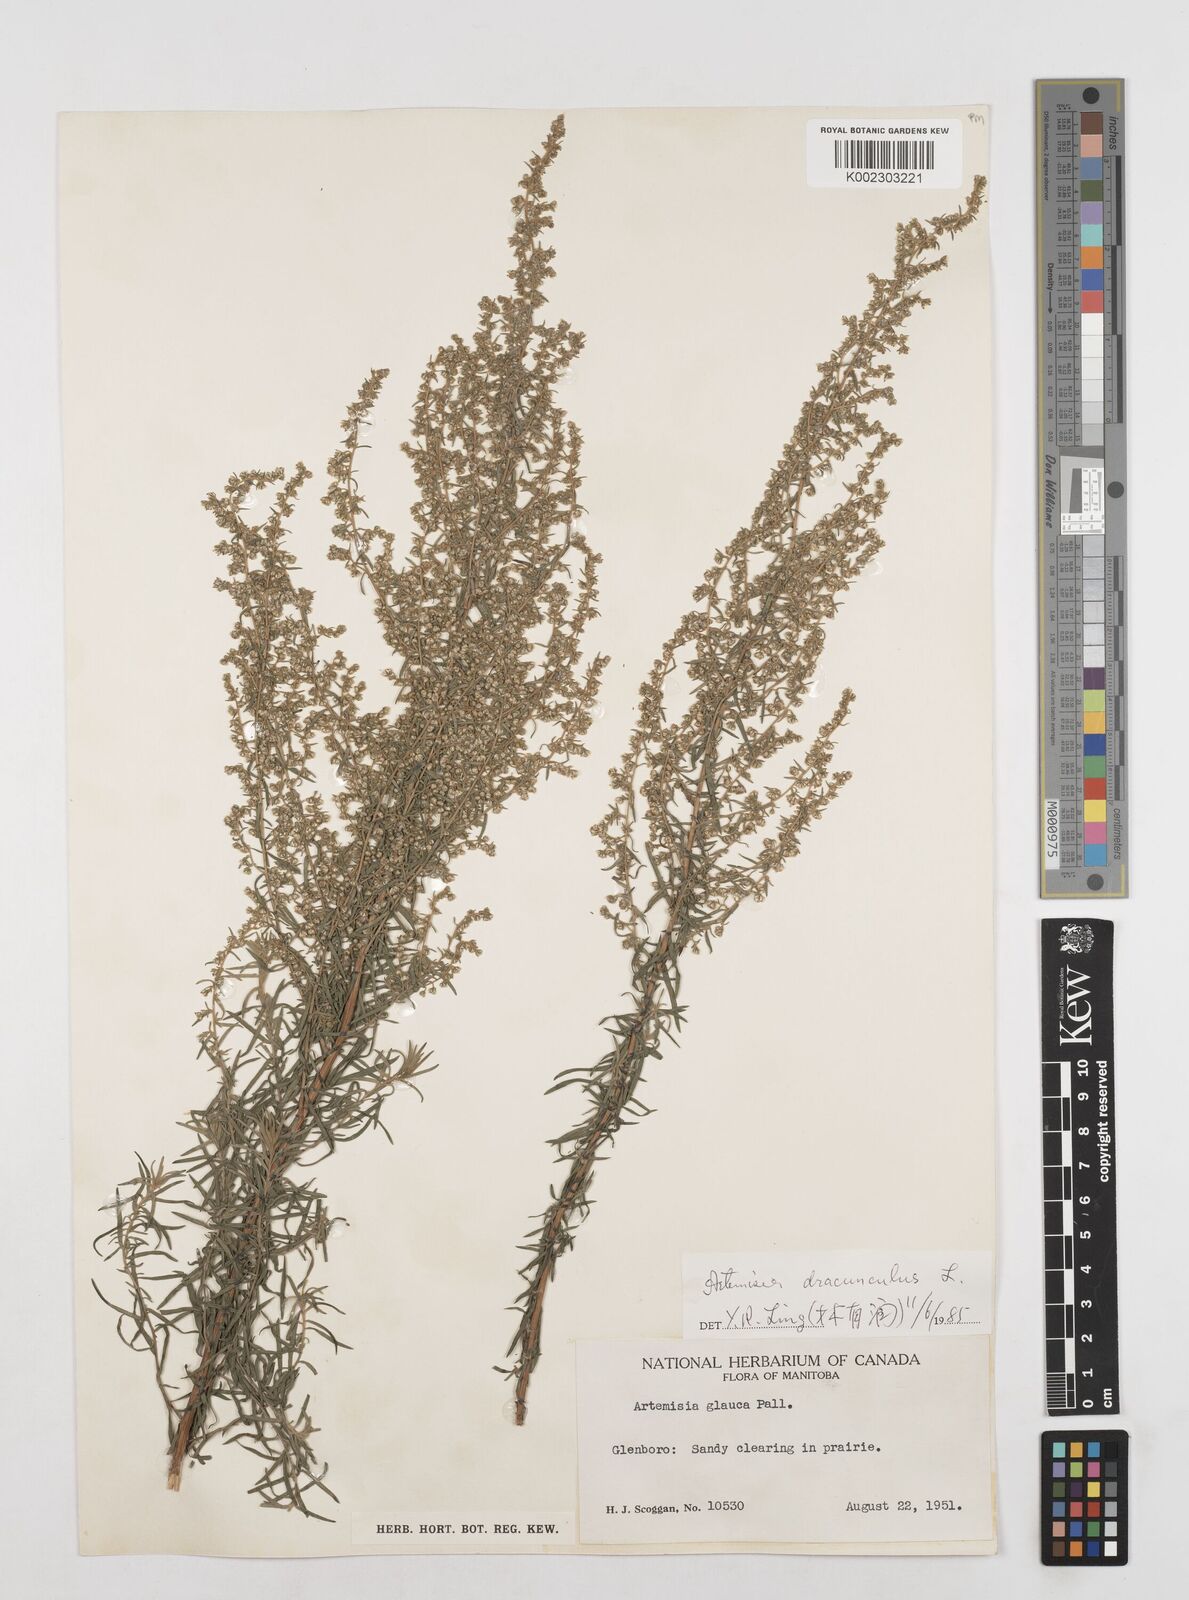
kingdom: Plantae
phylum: Tracheophyta
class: Magnoliopsida
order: Asterales
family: Asteraceae
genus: Artemisia
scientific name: Artemisia dracunculus
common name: Tarragon
